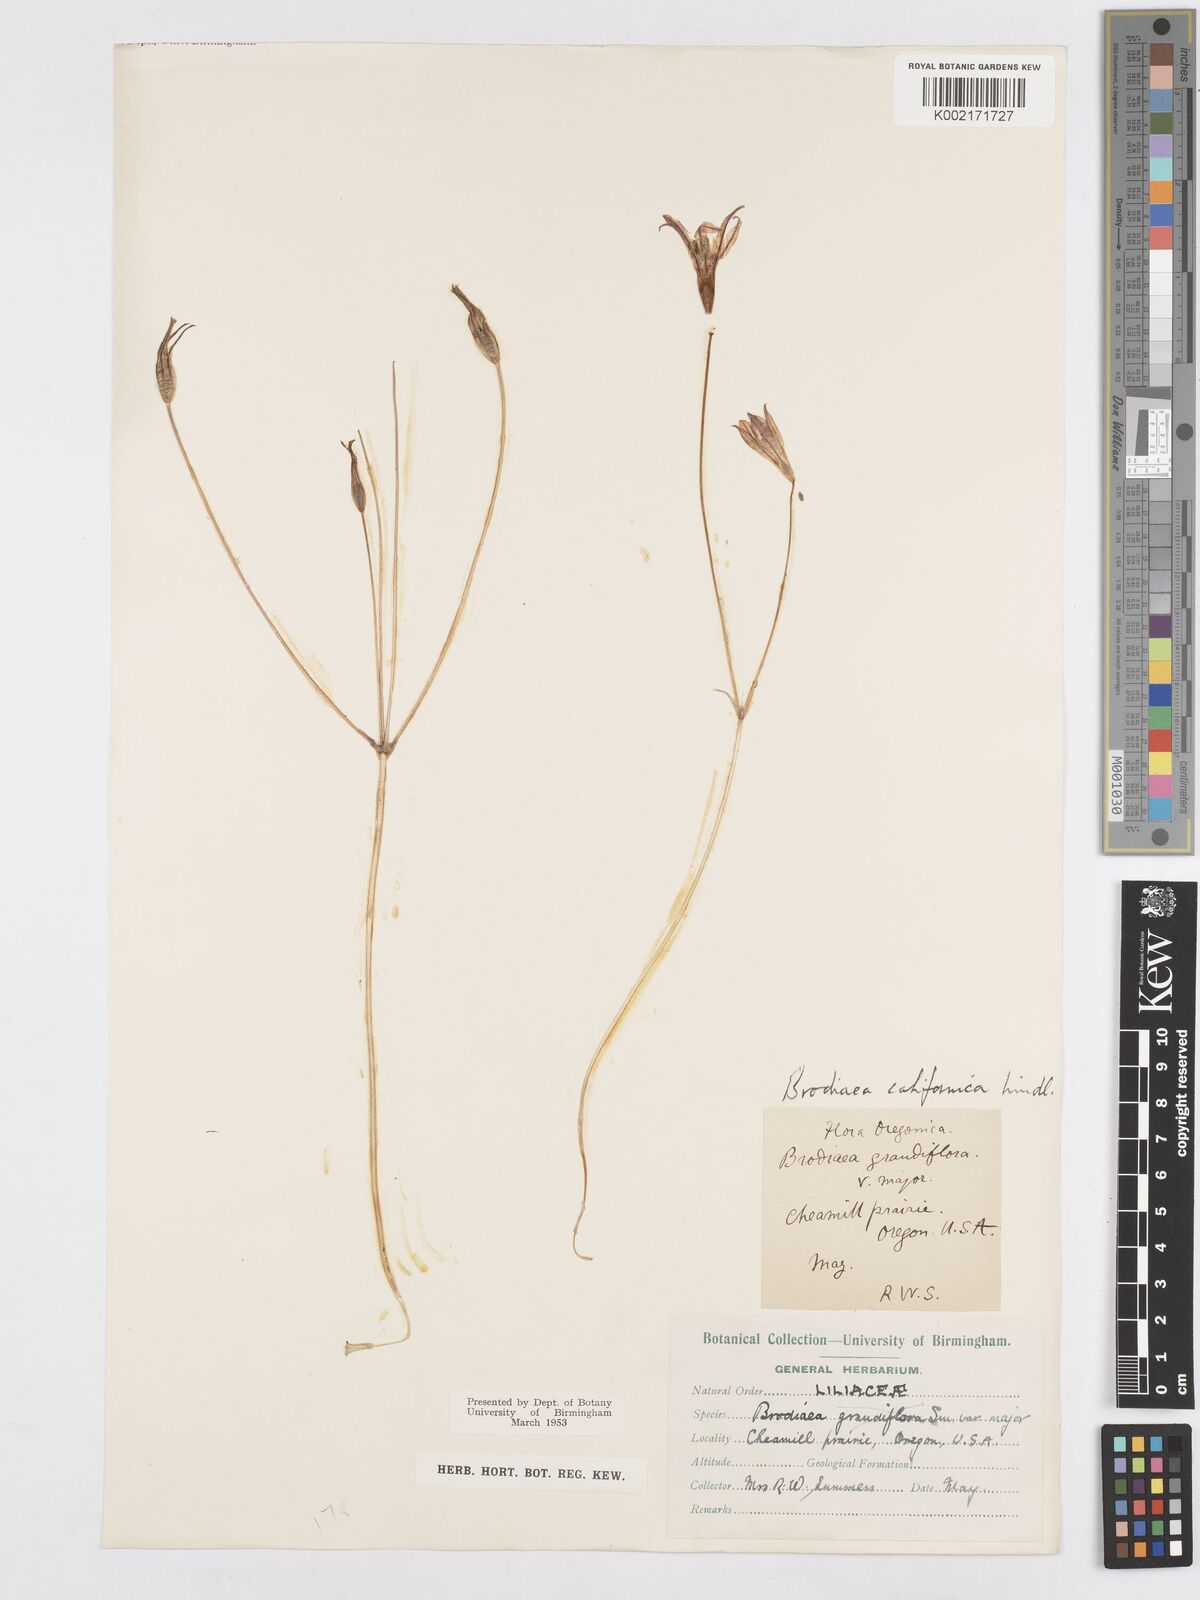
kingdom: Plantae
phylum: Tracheophyta
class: Liliopsida
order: Asparagales
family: Asparagaceae
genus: Triteleia
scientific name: Triteleia laxa
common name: Triplet-lily
